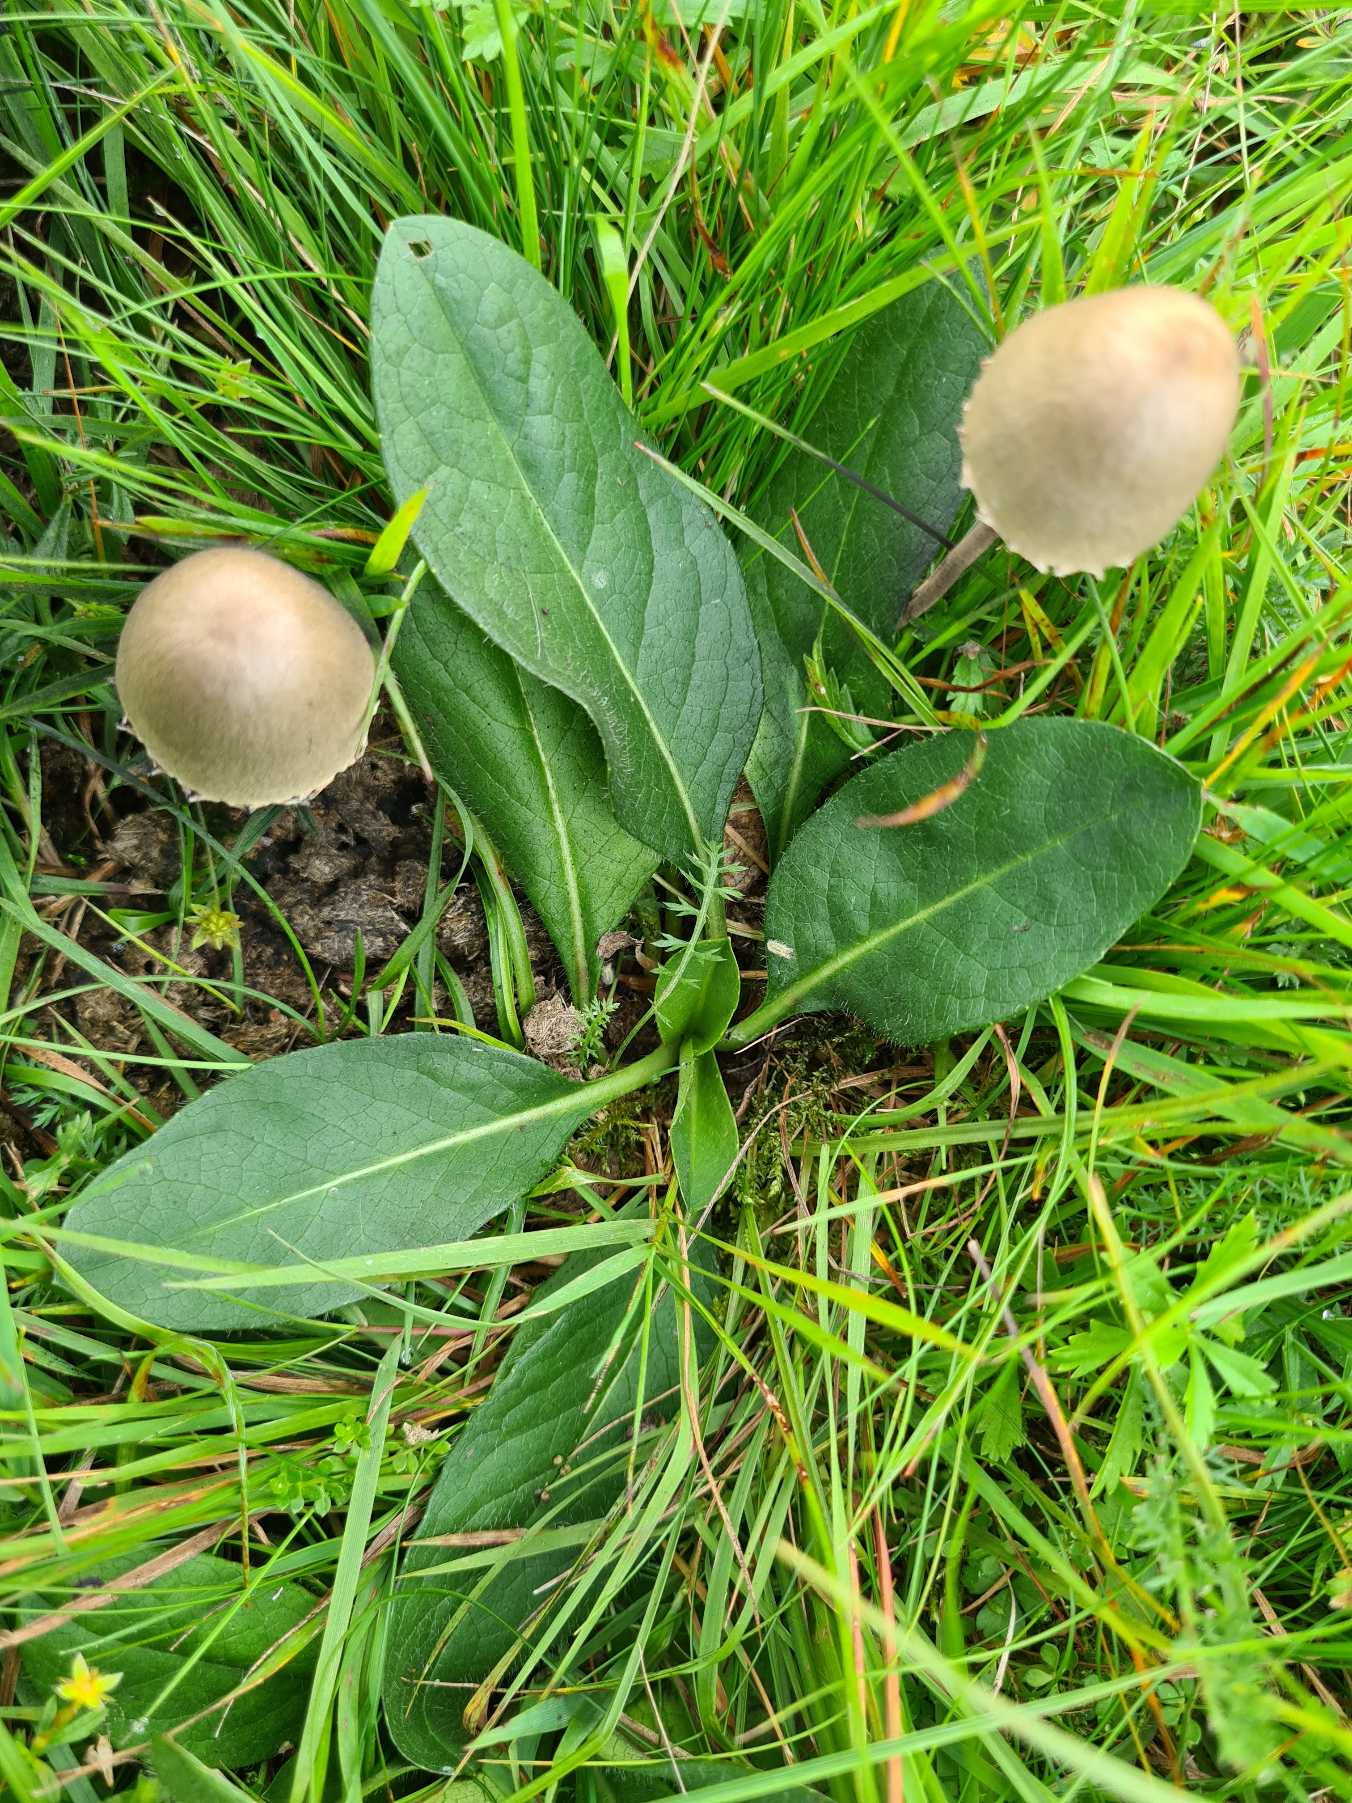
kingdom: Plantae
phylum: Tracheophyta
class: Magnoliopsida
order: Dipsacales
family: Caprifoliaceae
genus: Succisa
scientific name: Succisa pratensis
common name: Djævelsbid
